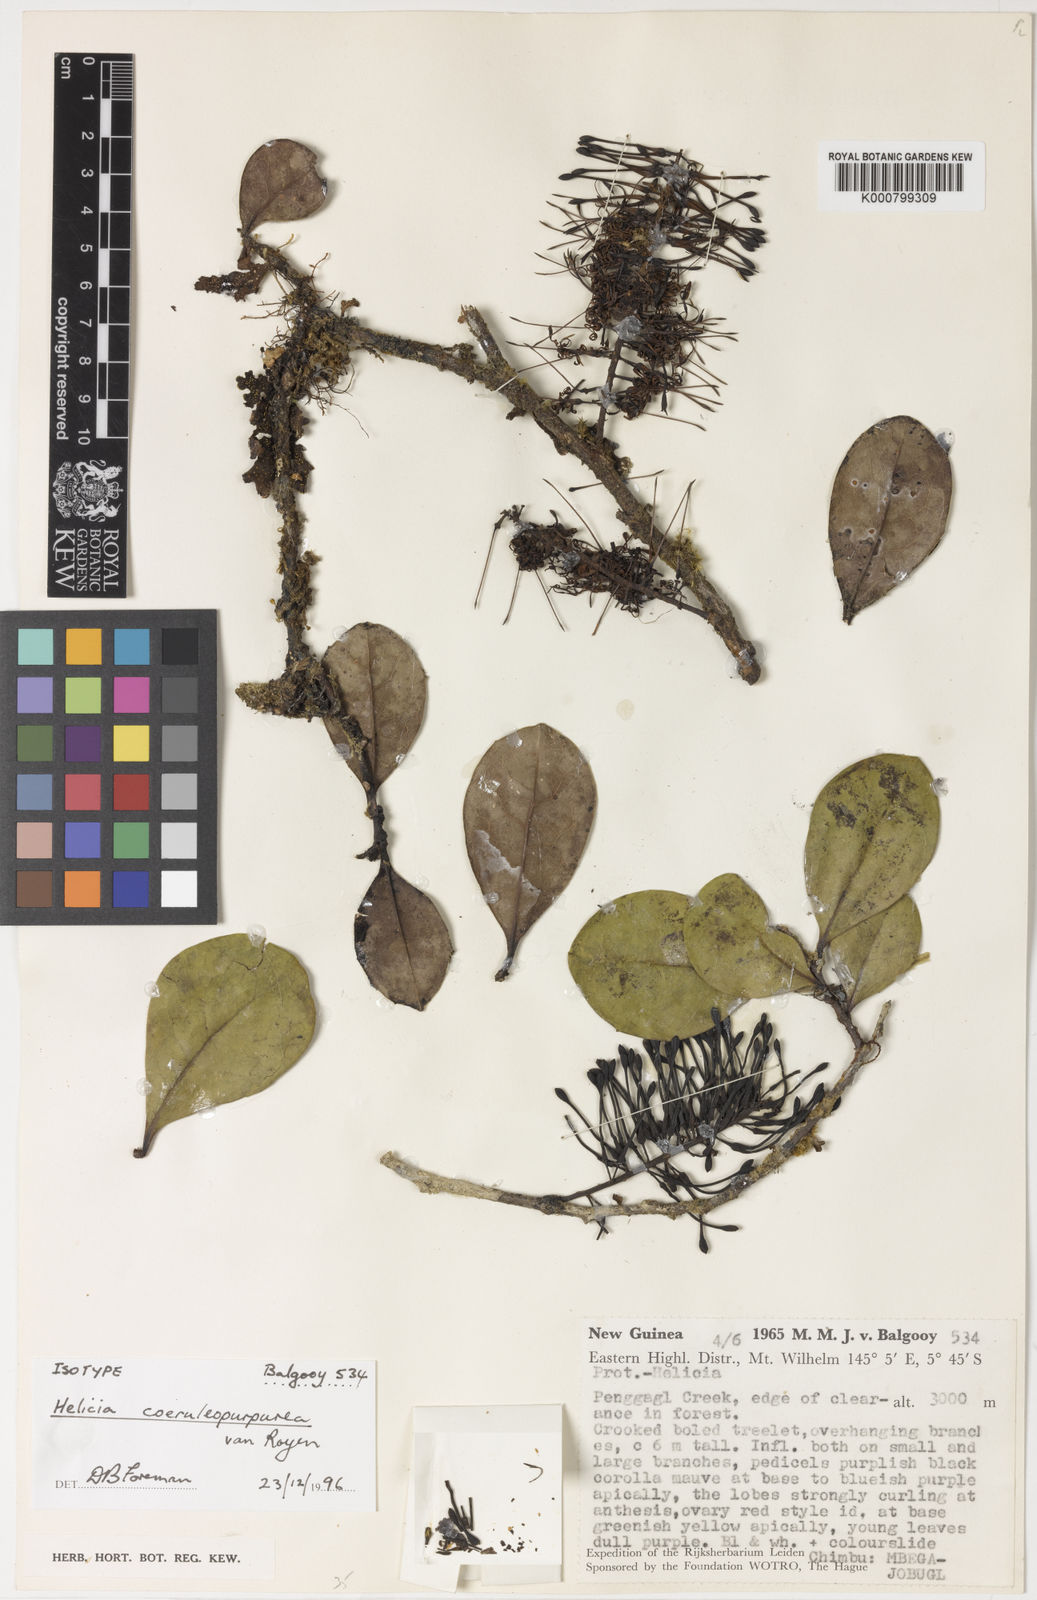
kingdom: Plantae
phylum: Tracheophyta
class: Magnoliopsida
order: Proteales
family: Proteaceae
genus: Helicia
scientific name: Helicia coeruleopurpurea
